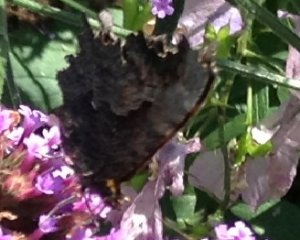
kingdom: Animalia
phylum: Arthropoda
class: Insecta
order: Lepidoptera
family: Nymphalidae
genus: Polygonia
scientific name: Polygonia progne
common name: Gray Comma
